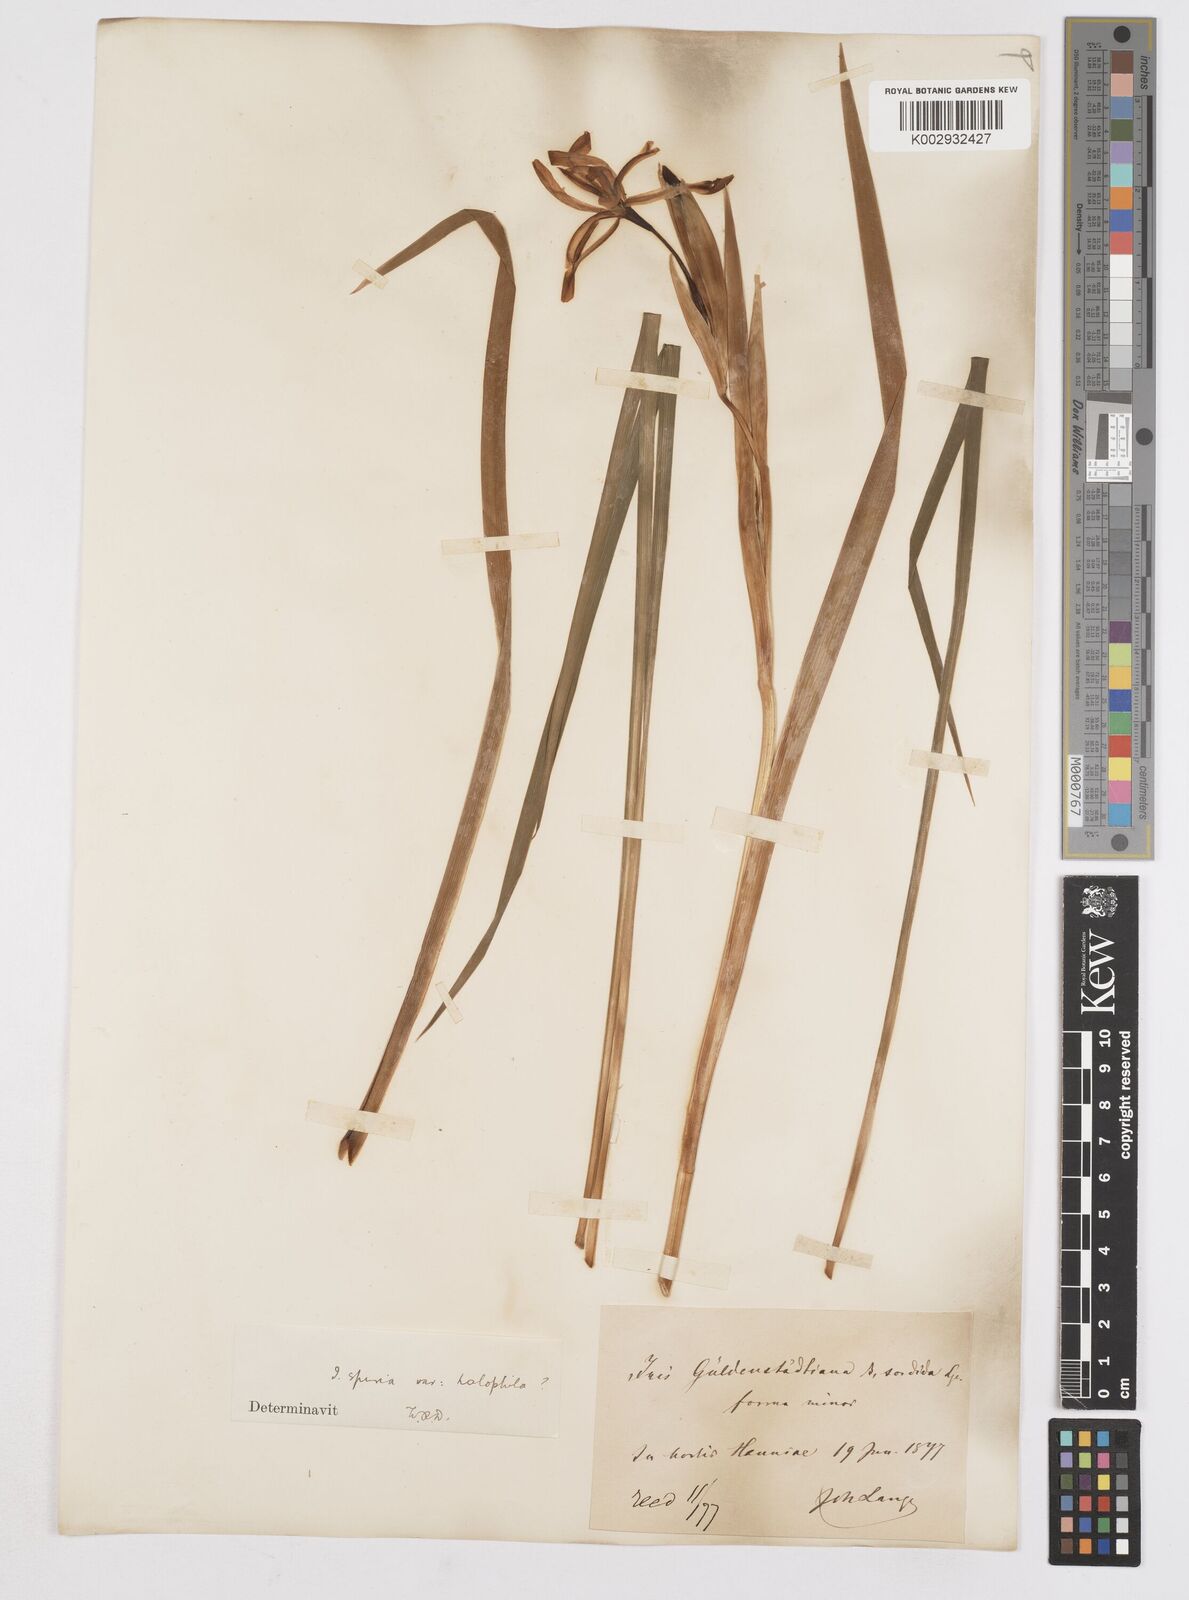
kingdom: Plantae
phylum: Tracheophyta
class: Liliopsida
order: Asparagales
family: Iridaceae
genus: Iris
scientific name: Iris halophila
